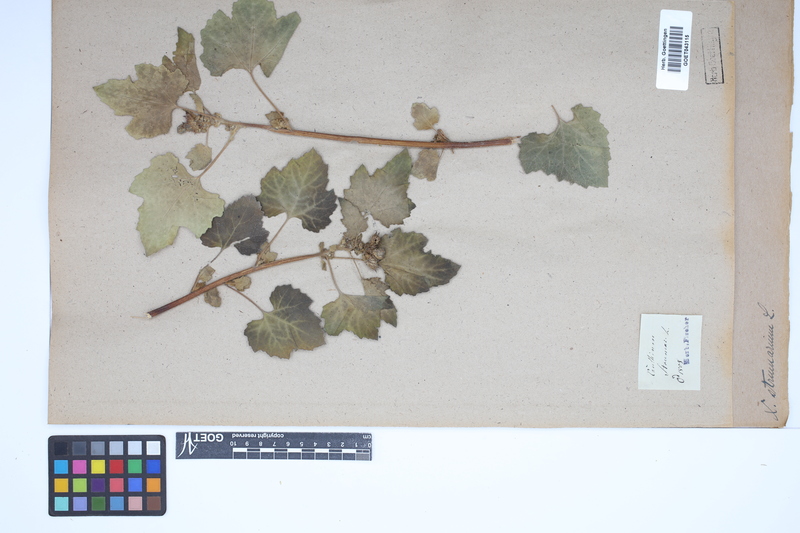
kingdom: Plantae
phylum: Tracheophyta
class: Magnoliopsida
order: Asterales
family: Asteraceae
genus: Xanthium
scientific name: Xanthium strumarium
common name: Rough cocklebur
